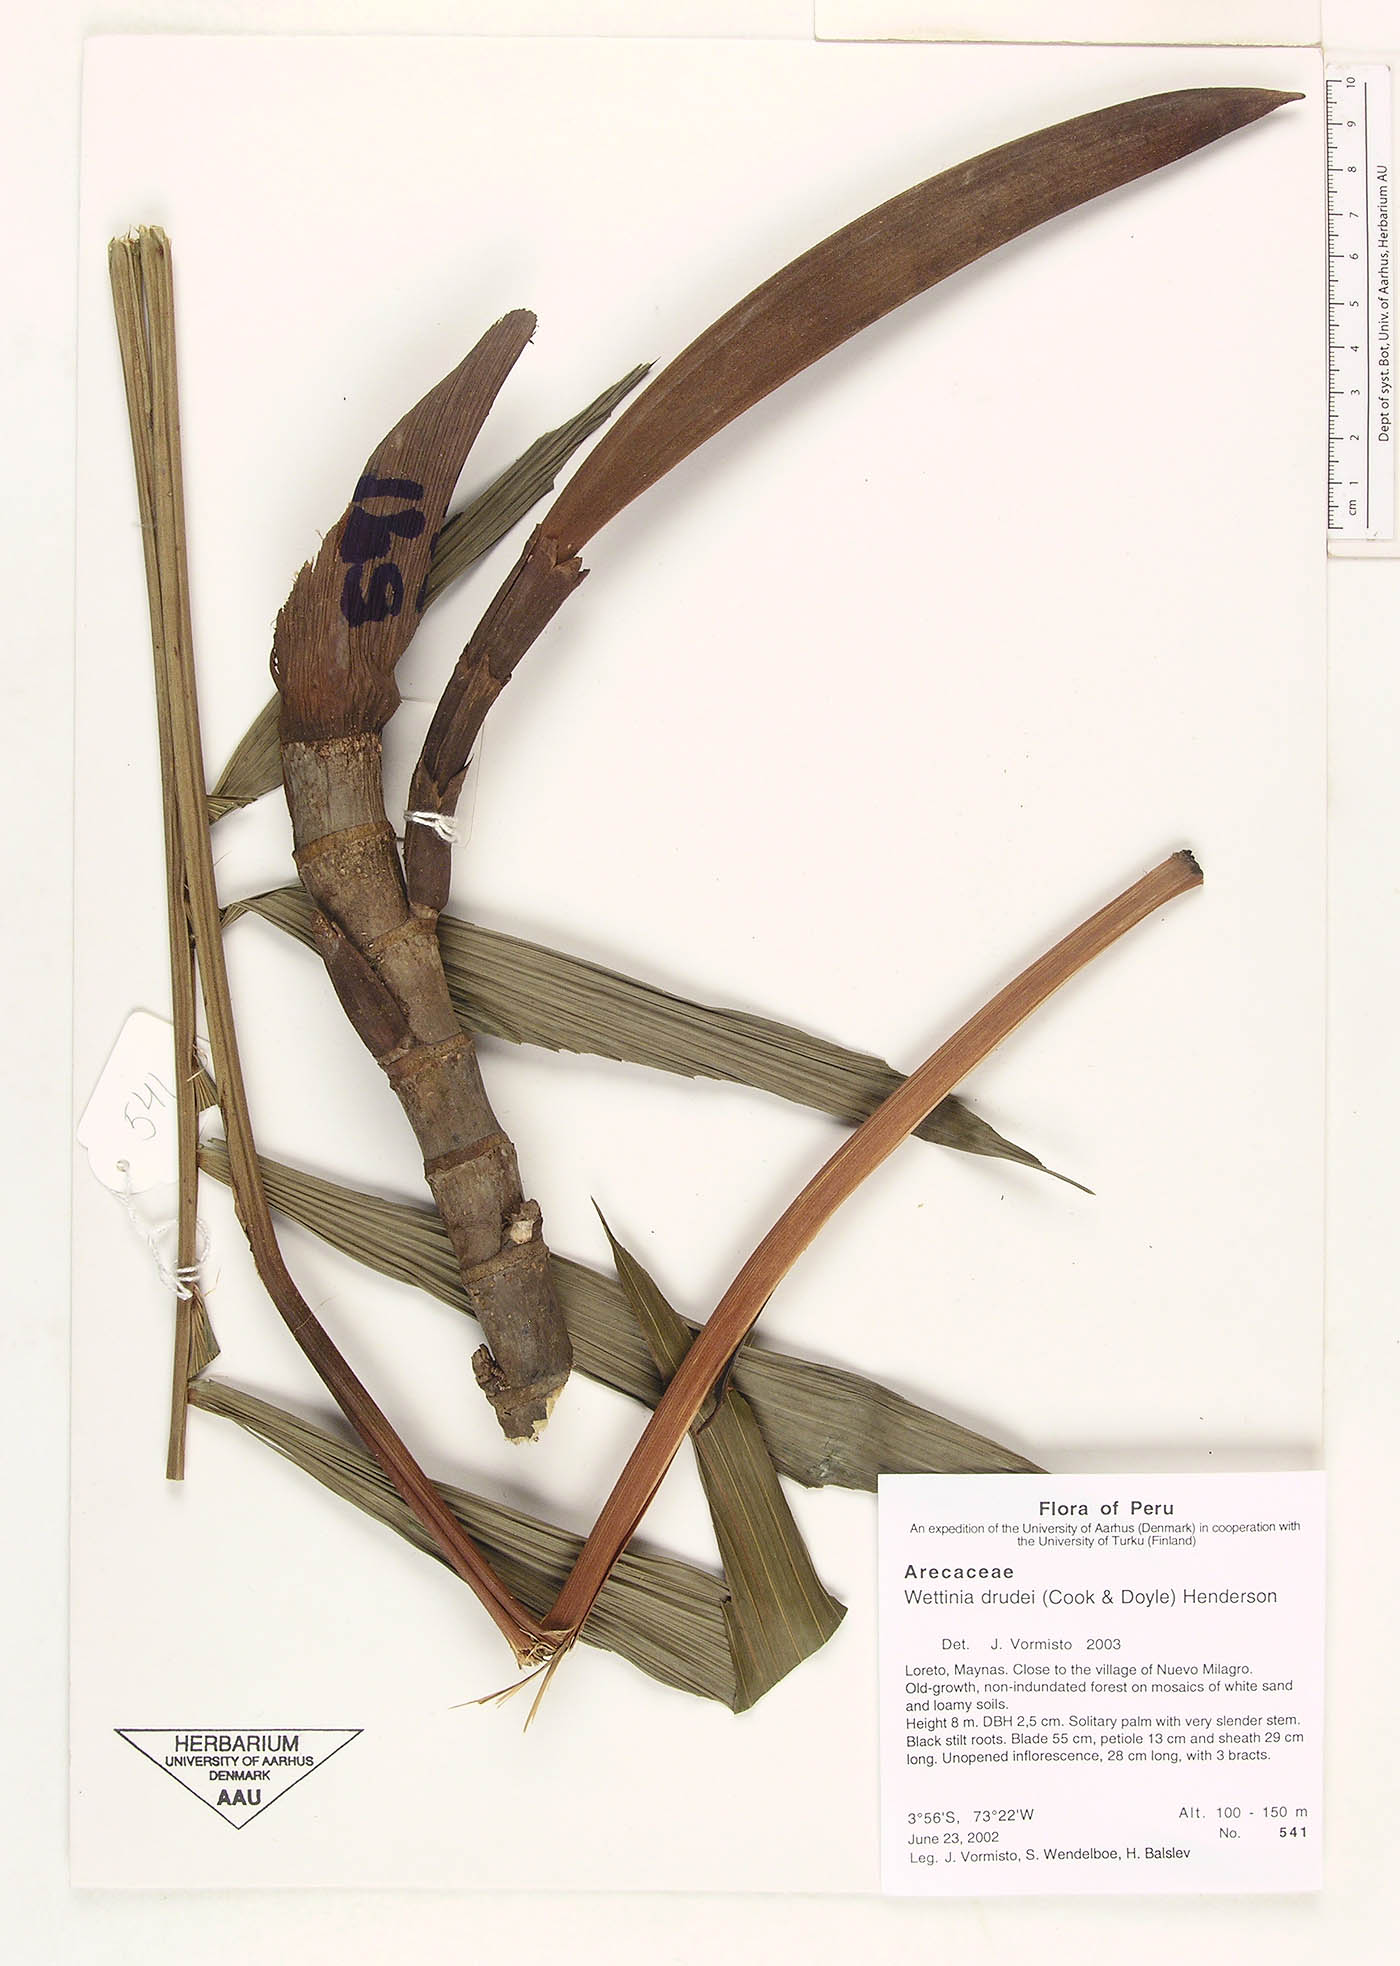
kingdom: Plantae
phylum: Tracheophyta
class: Liliopsida
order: Arecales
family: Arecaceae
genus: Wettinia
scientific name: Wettinia drudei
